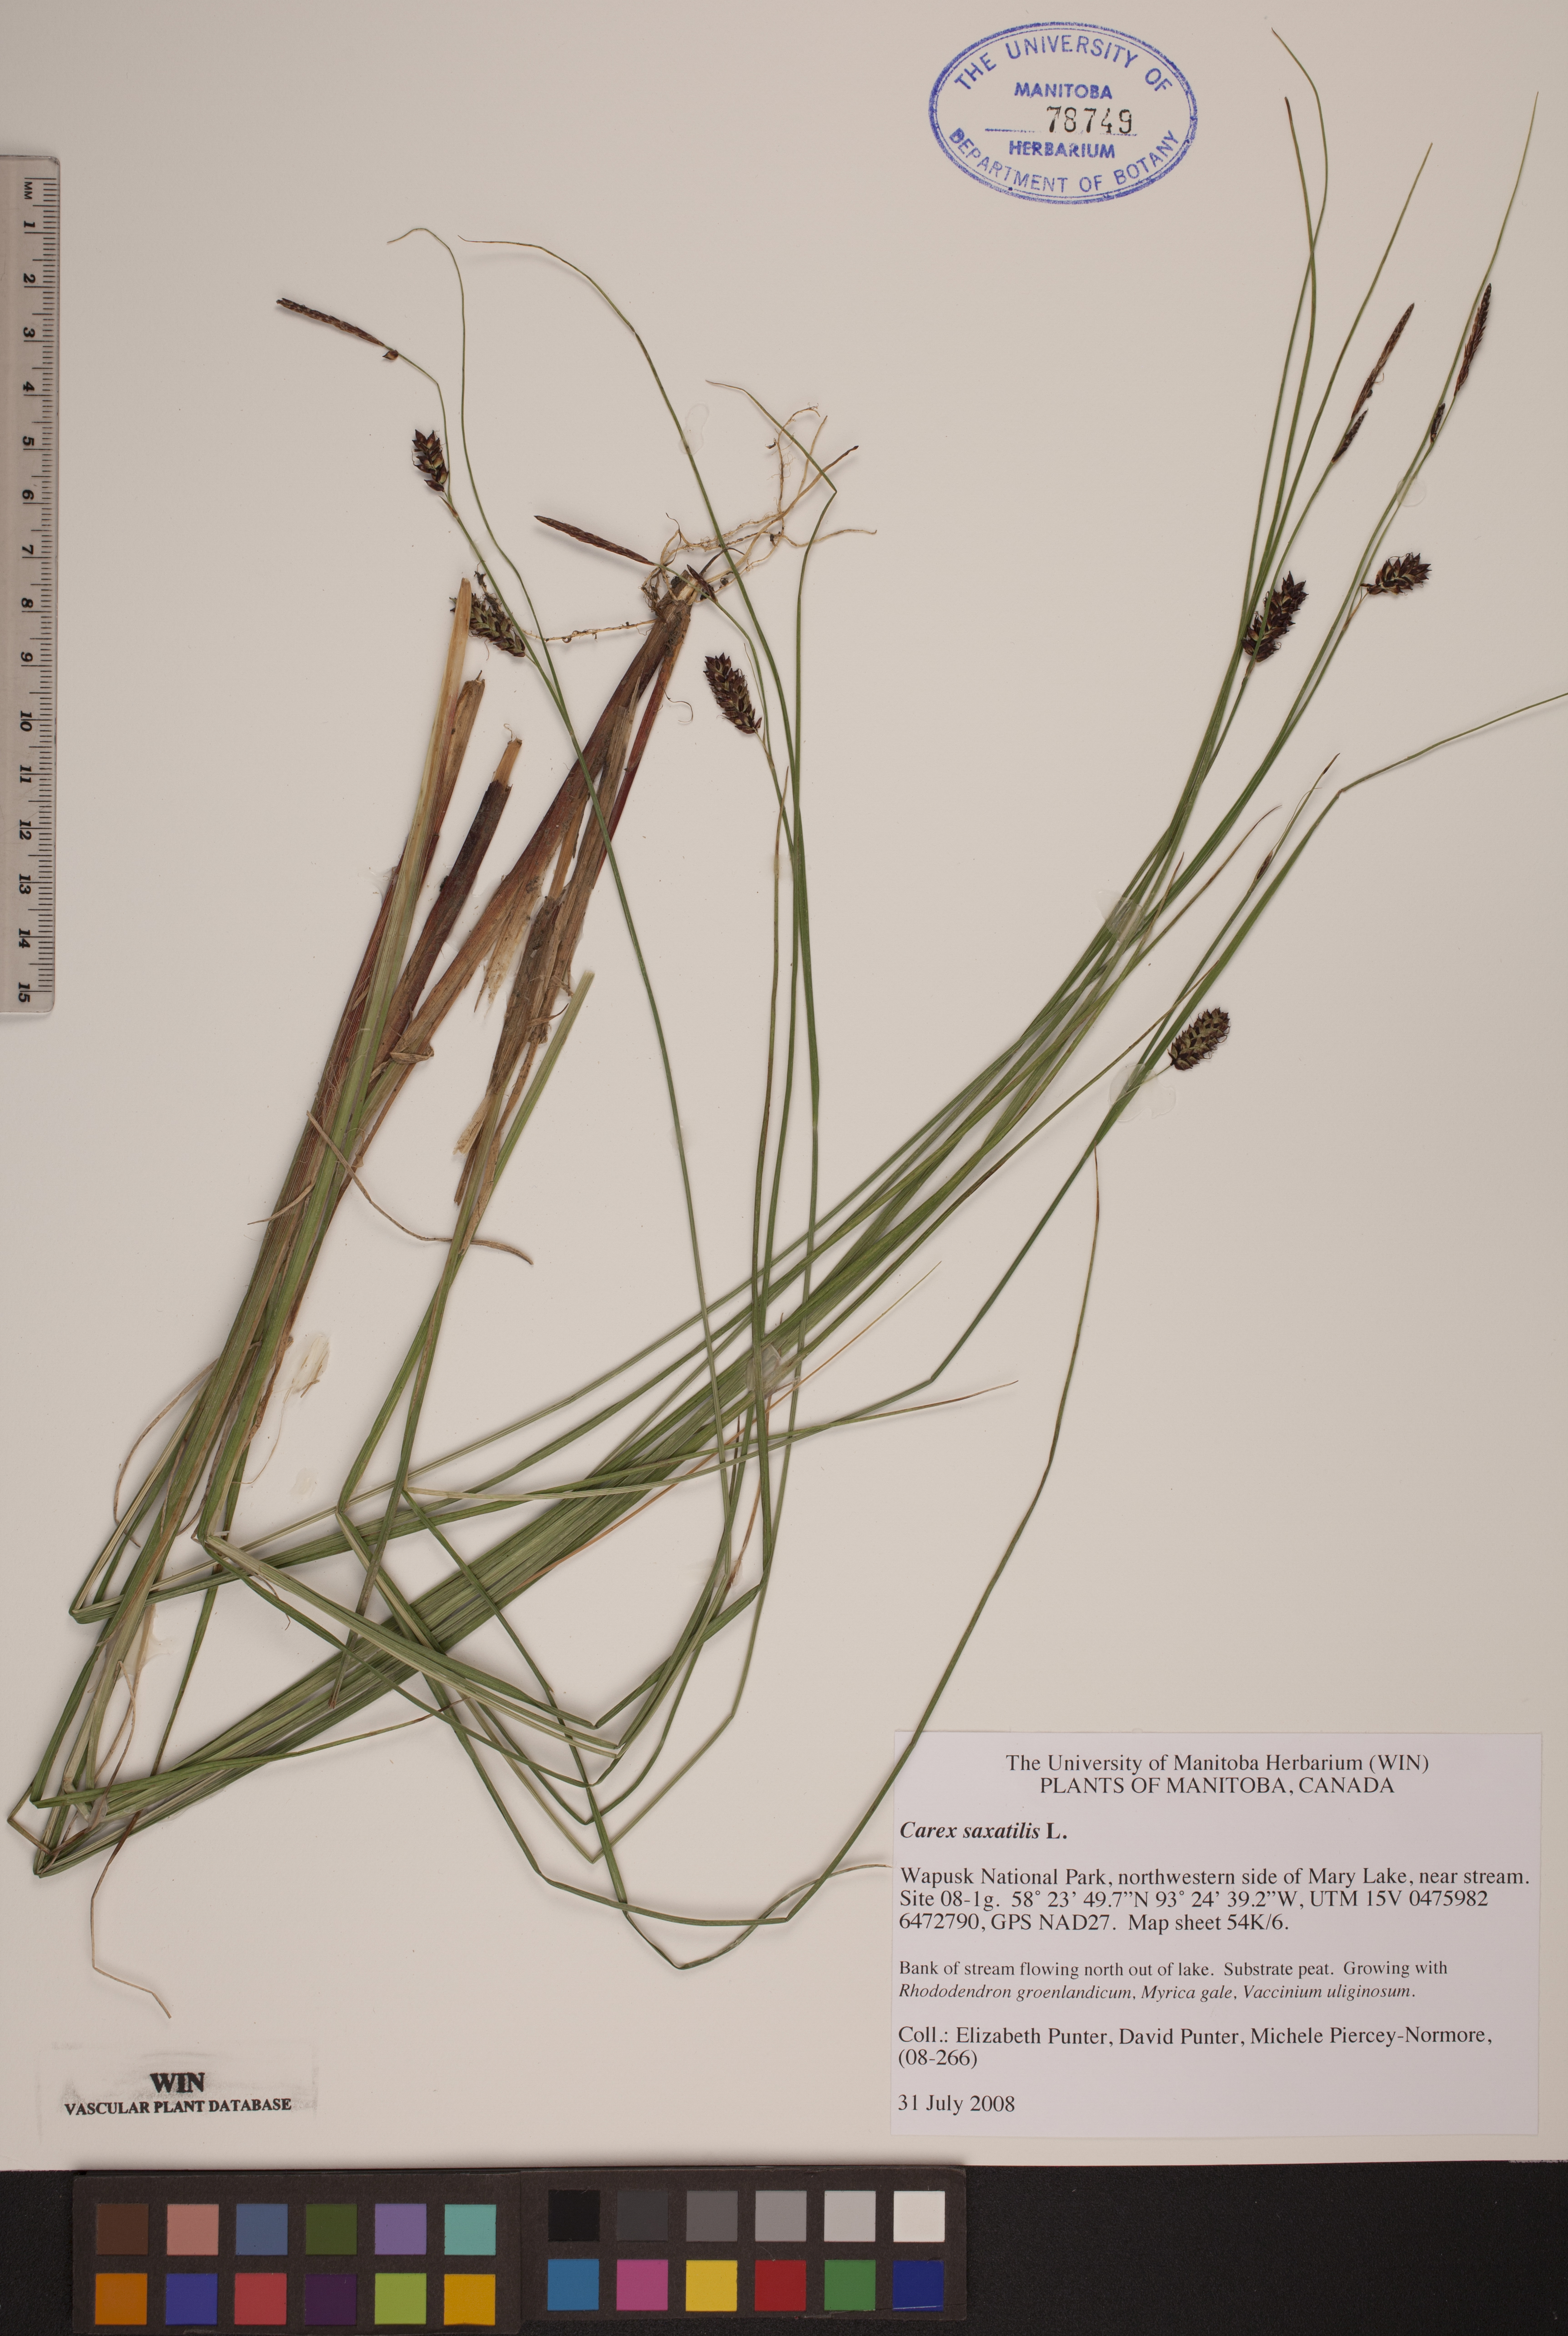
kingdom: Plantae
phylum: Tracheophyta
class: Liliopsida
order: Poales
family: Cyperaceae
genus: Carex
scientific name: Carex saxatilis
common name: Russet sedge
